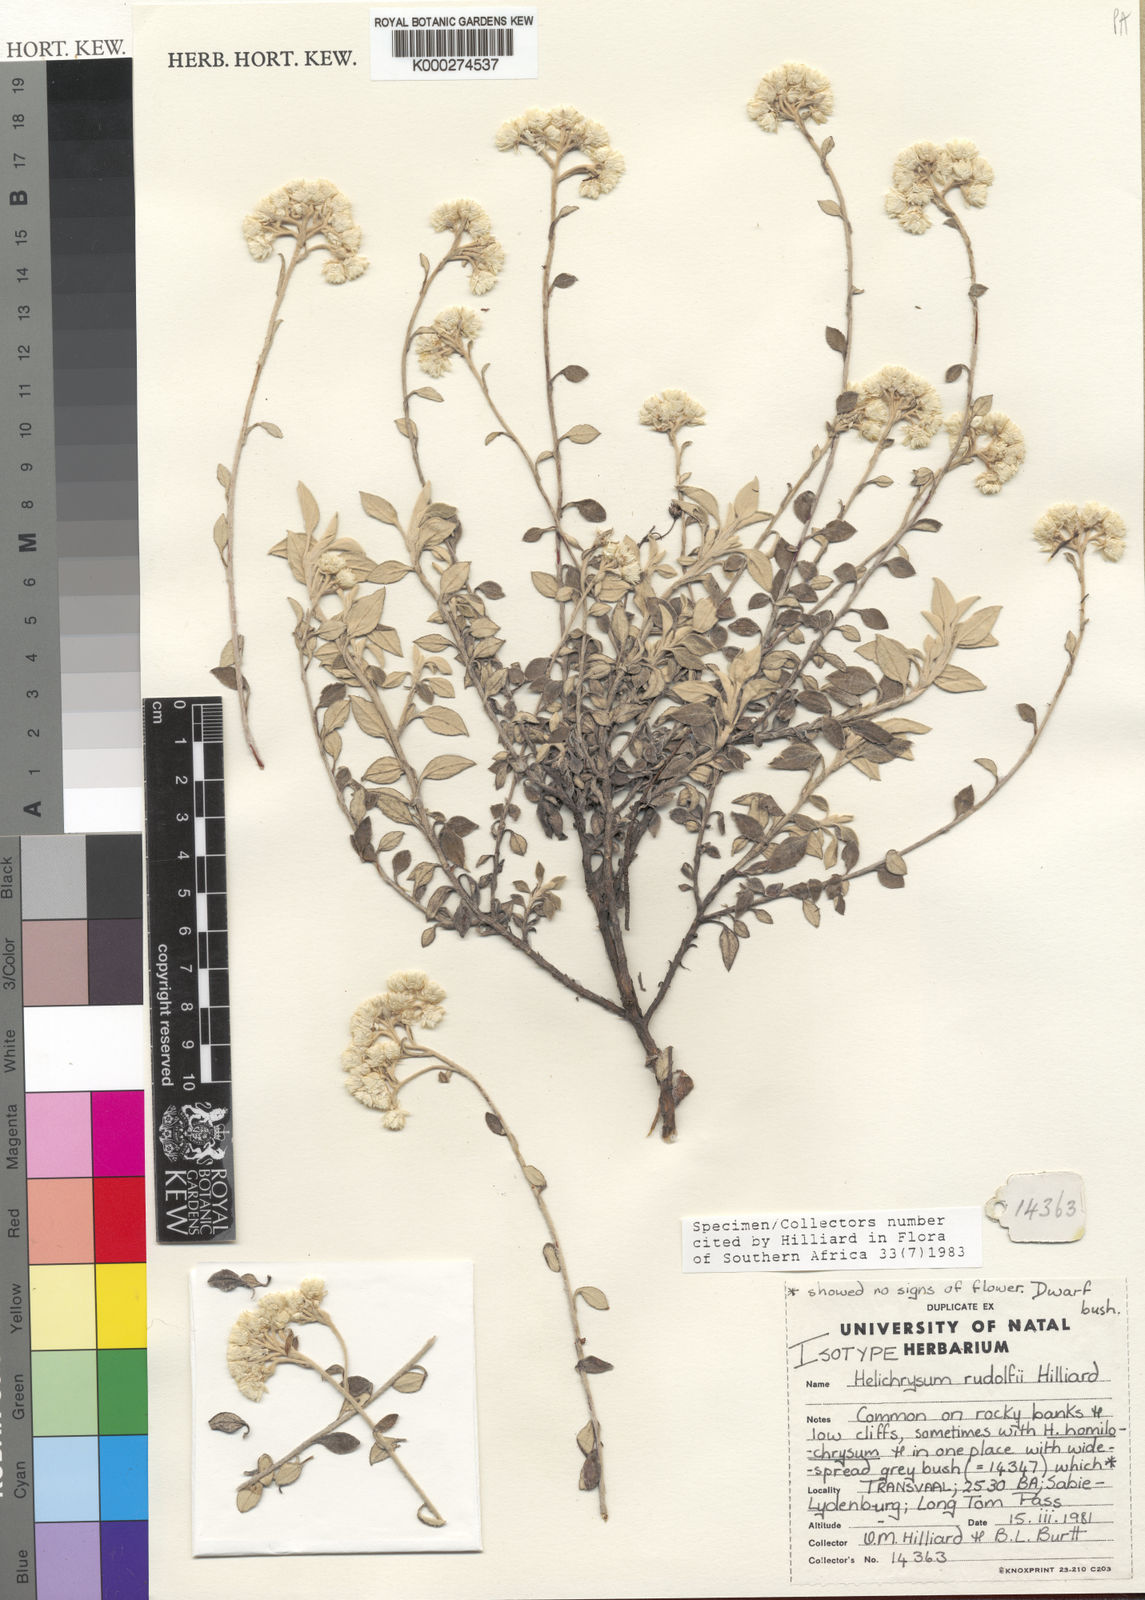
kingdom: Plantae
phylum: Tracheophyta
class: Magnoliopsida
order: Asterales
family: Asteraceae
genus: Helichrysum
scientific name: Helichrysum rudolfii
